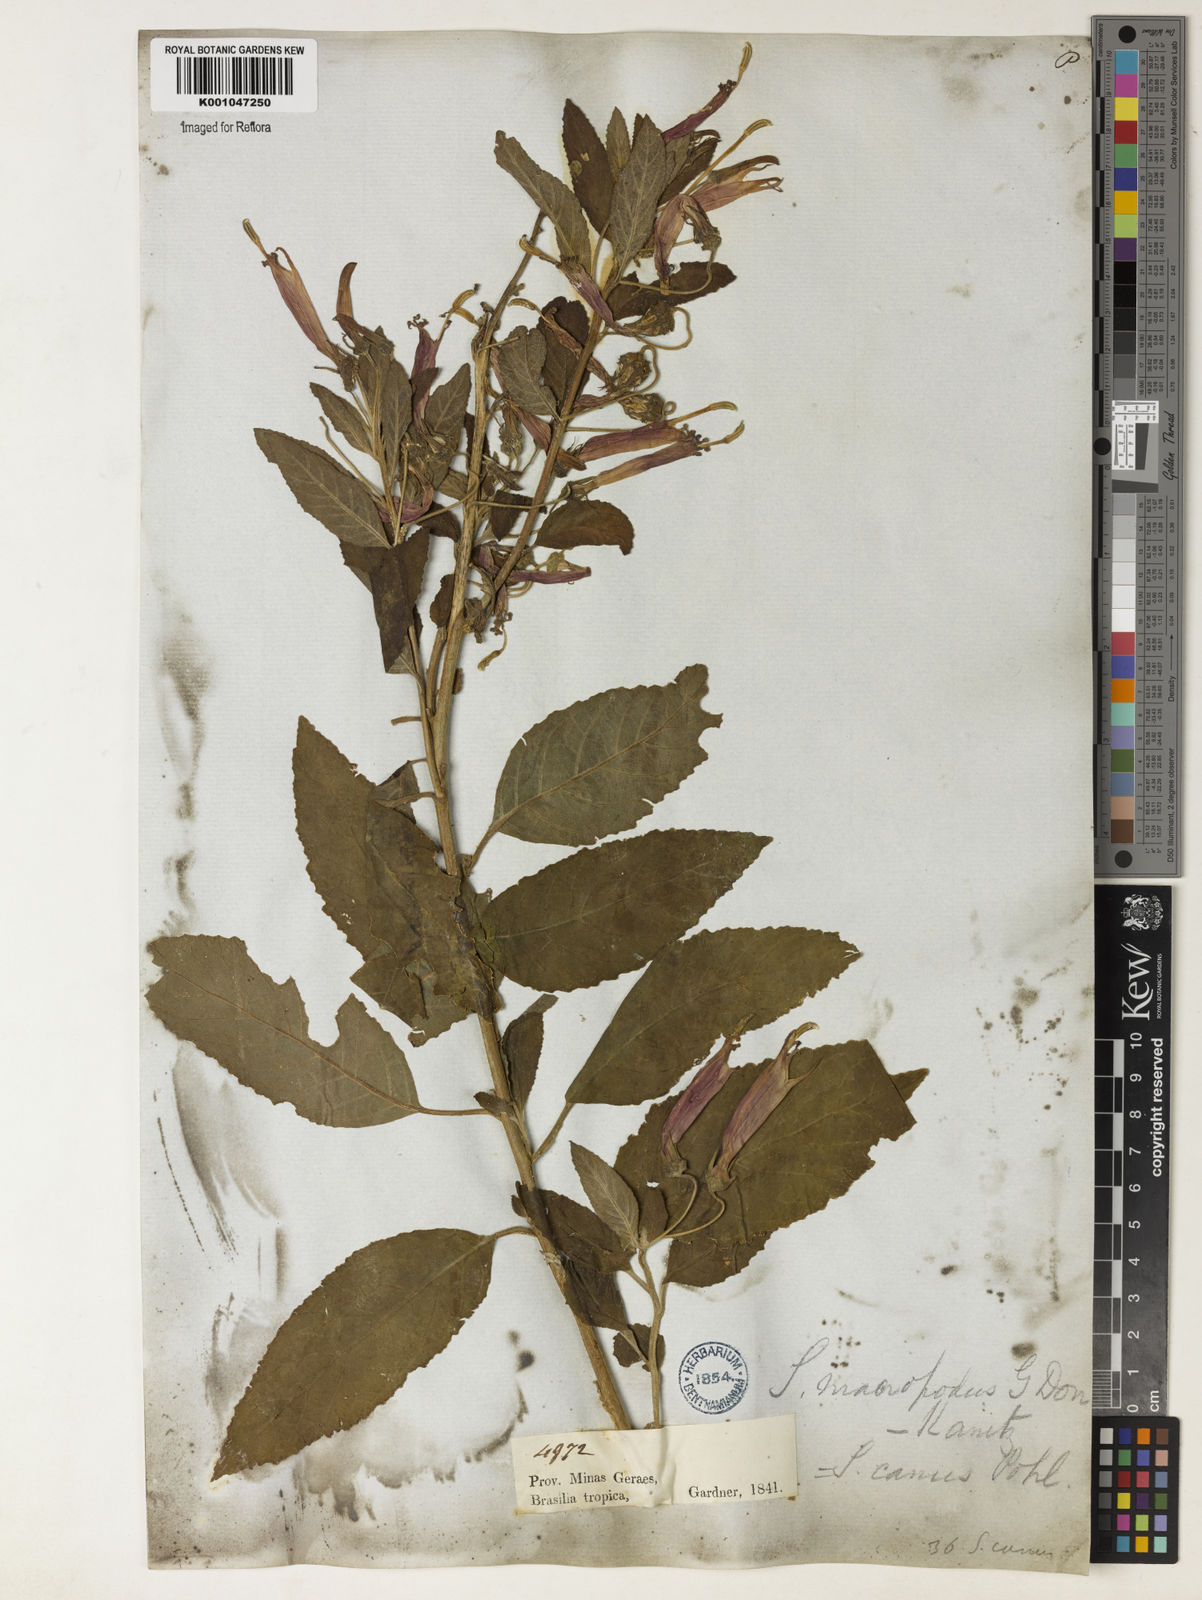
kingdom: Plantae
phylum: Tracheophyta
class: Magnoliopsida
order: Asterales
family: Campanulaceae
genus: Siphocampylus
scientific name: Siphocampylus macropodus
